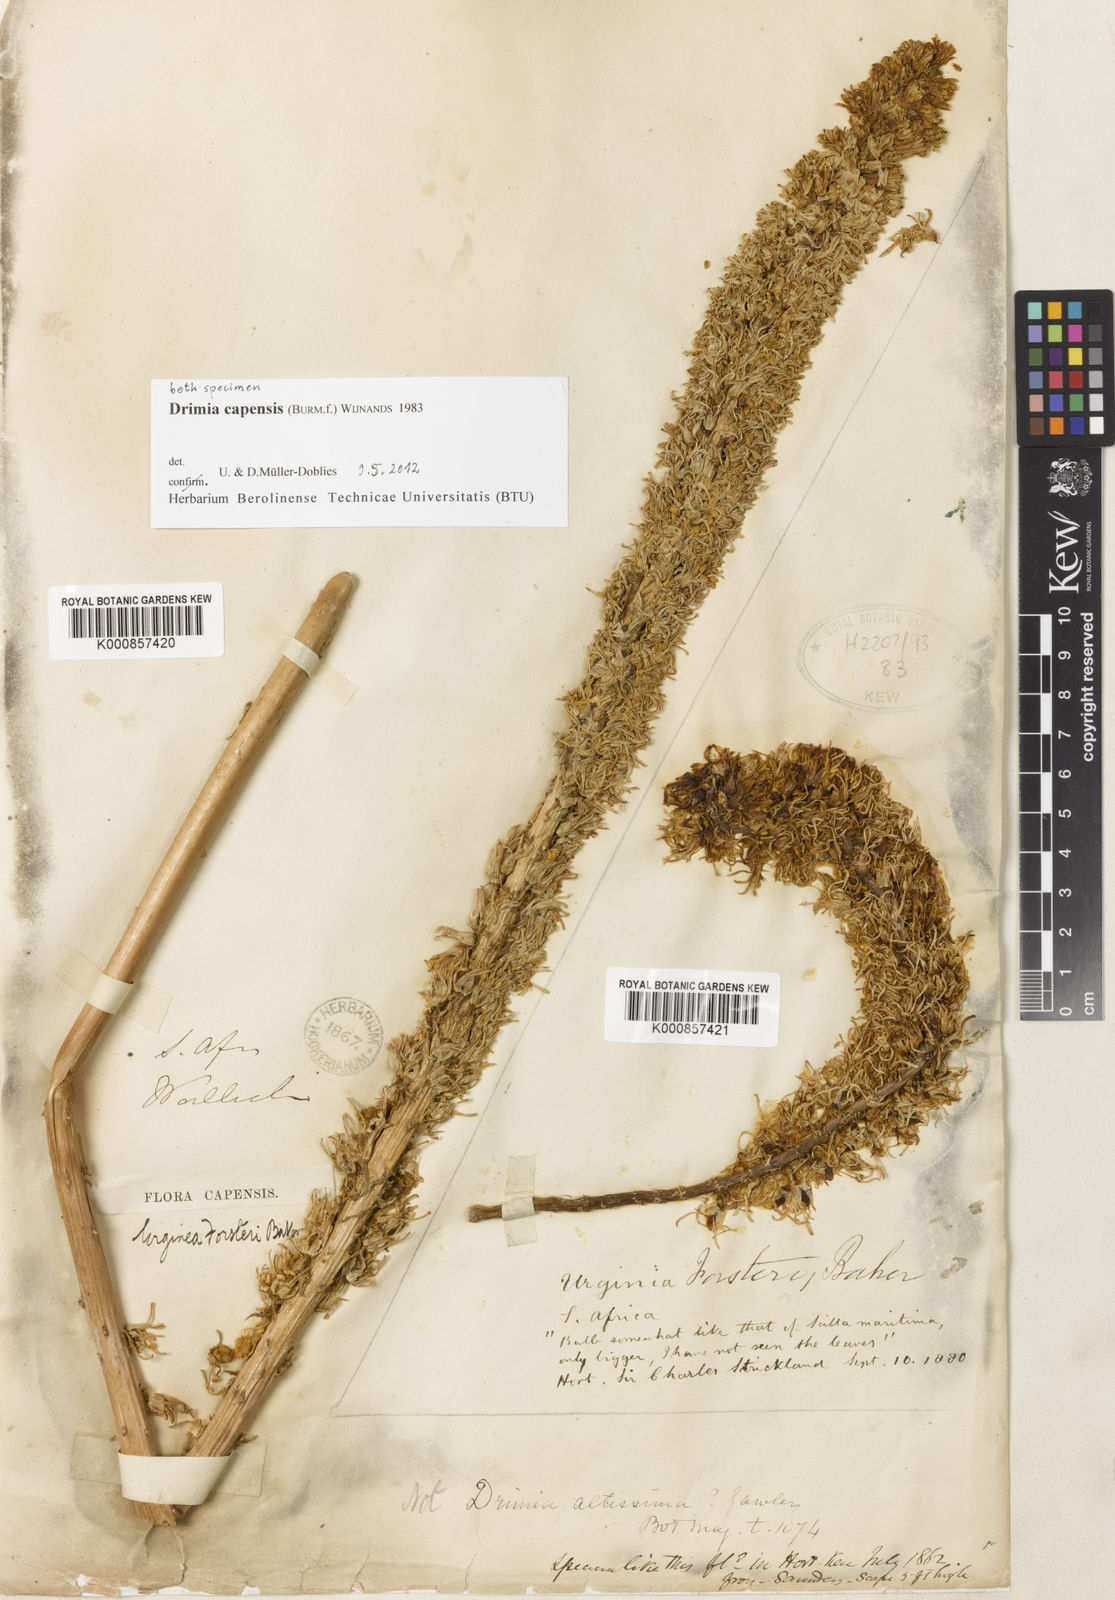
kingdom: Plantae
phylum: Tracheophyta
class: Liliopsida
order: Asparagales
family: Asparagaceae
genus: Drimia
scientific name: Drimia capensis
